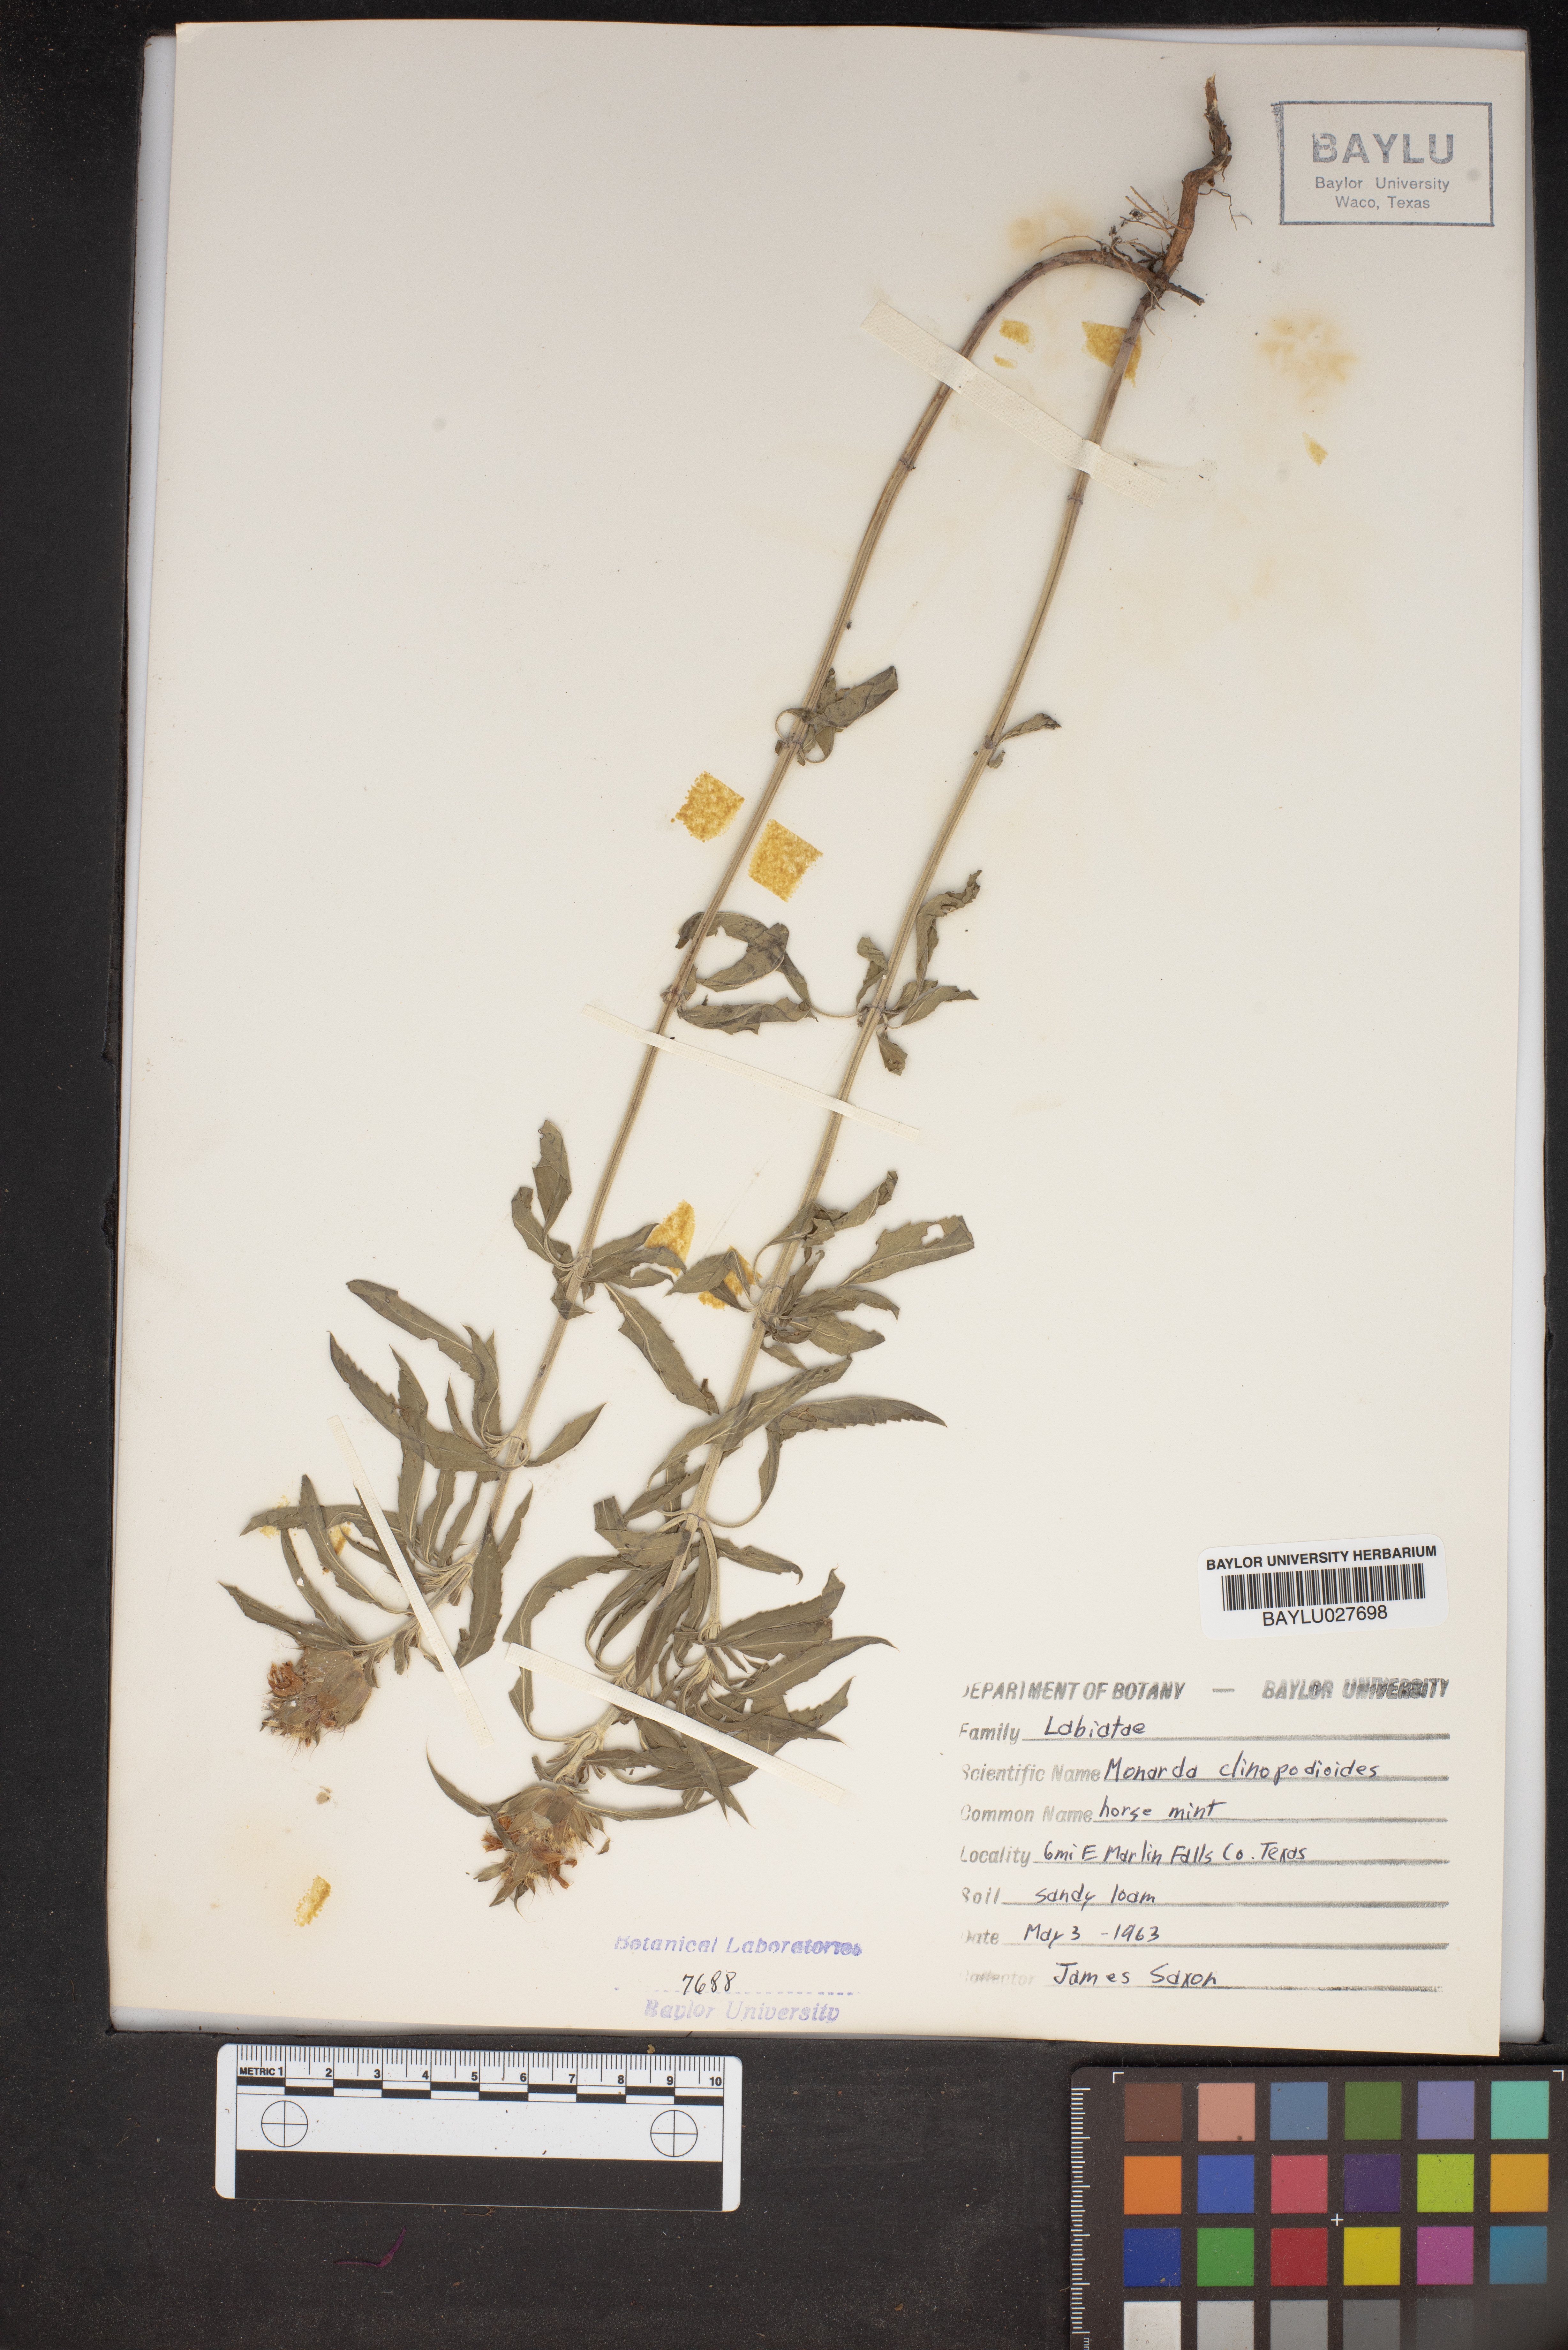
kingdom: Plantae
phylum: Tracheophyta
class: Magnoliopsida
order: Lamiales
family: Lamiaceae
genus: Monarda
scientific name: Monarda clinopodioides
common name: Basil beebalm
